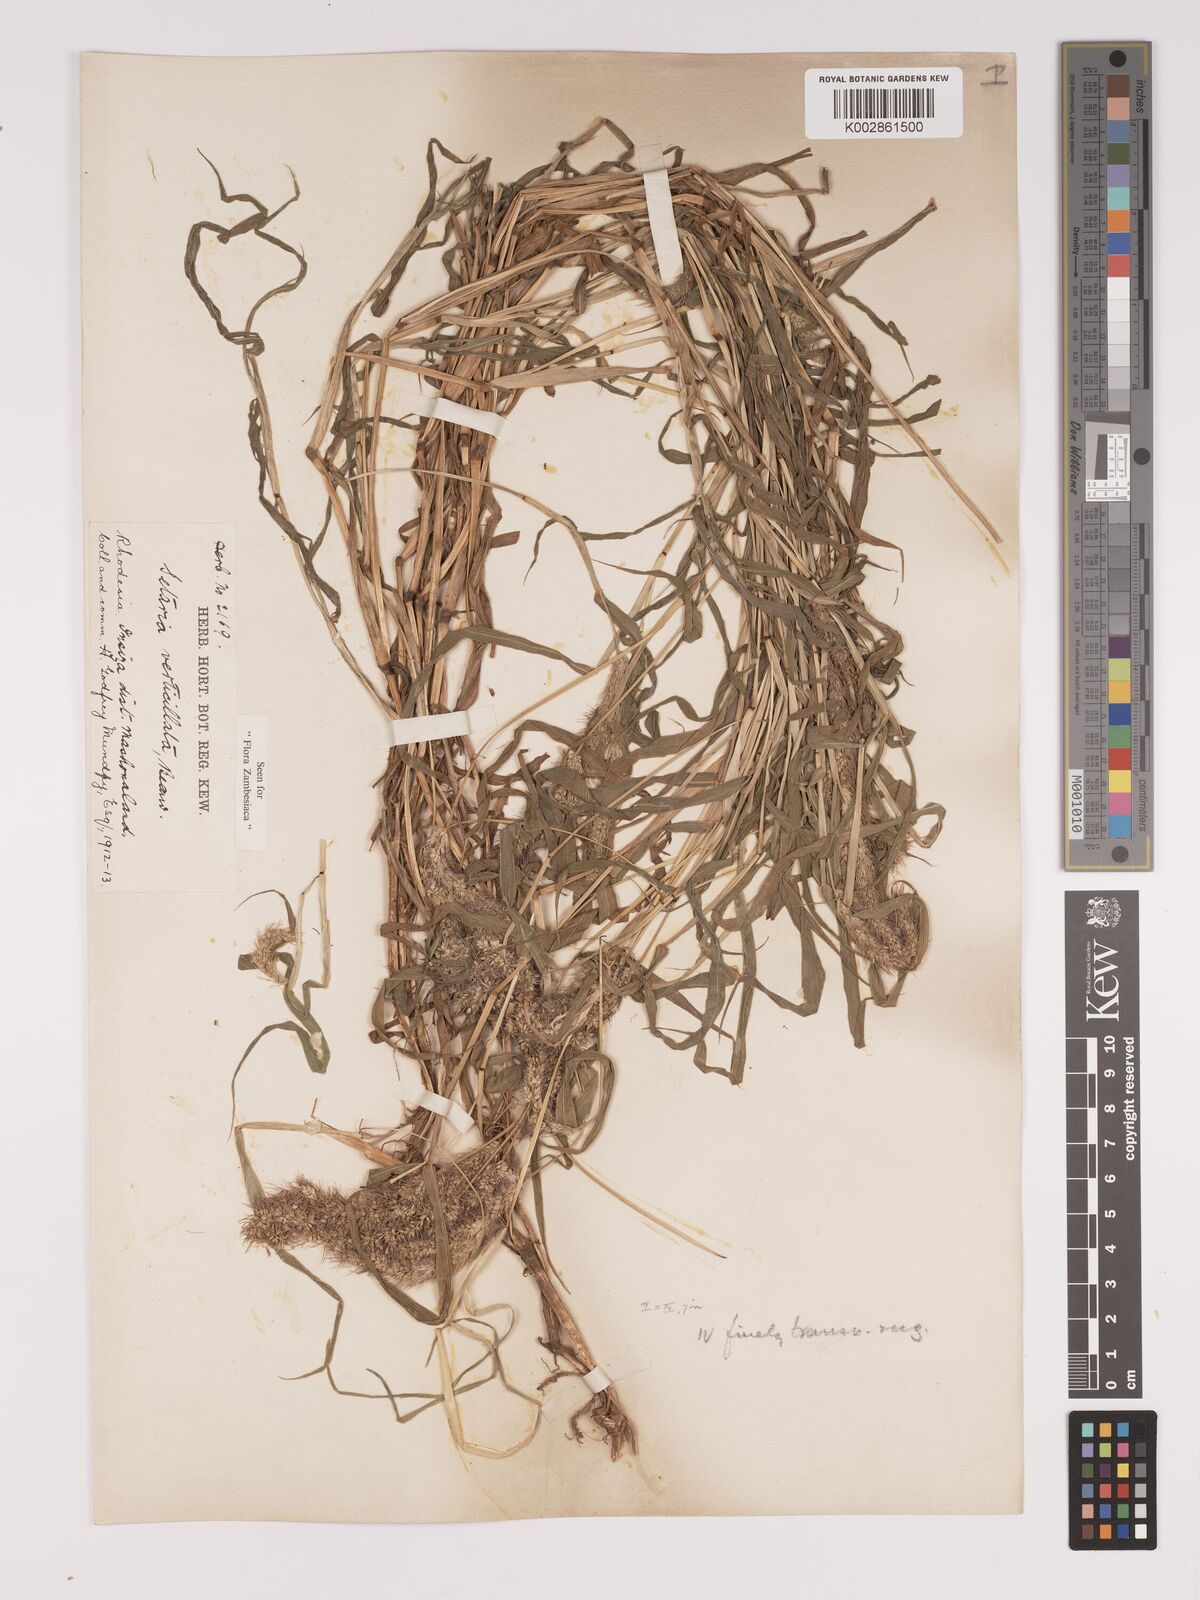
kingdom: Plantae
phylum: Tracheophyta
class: Liliopsida
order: Poales
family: Poaceae
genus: Setaria
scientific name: Setaria verticillata
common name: Hooked bristlegrass
